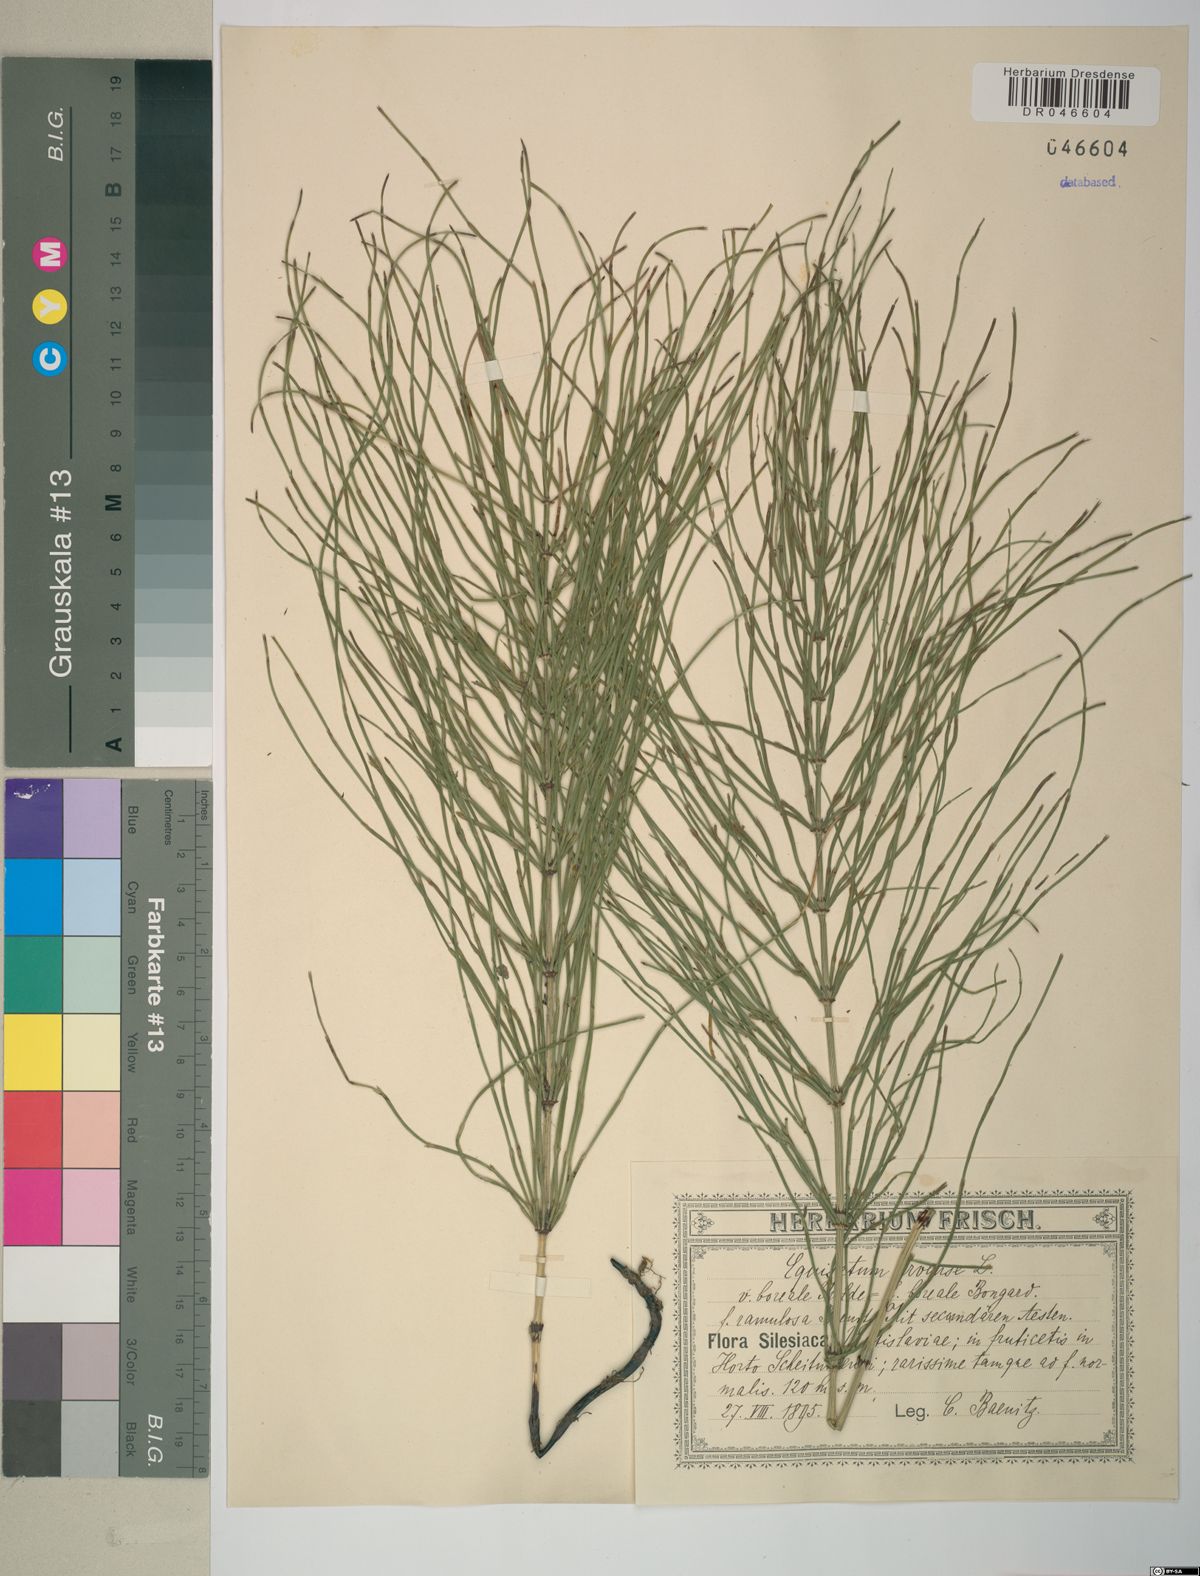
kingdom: Plantae
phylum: Tracheophyta
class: Polypodiopsida
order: Equisetales
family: Equisetaceae
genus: Equisetum
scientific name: Equisetum arvense
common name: Field horsetail
